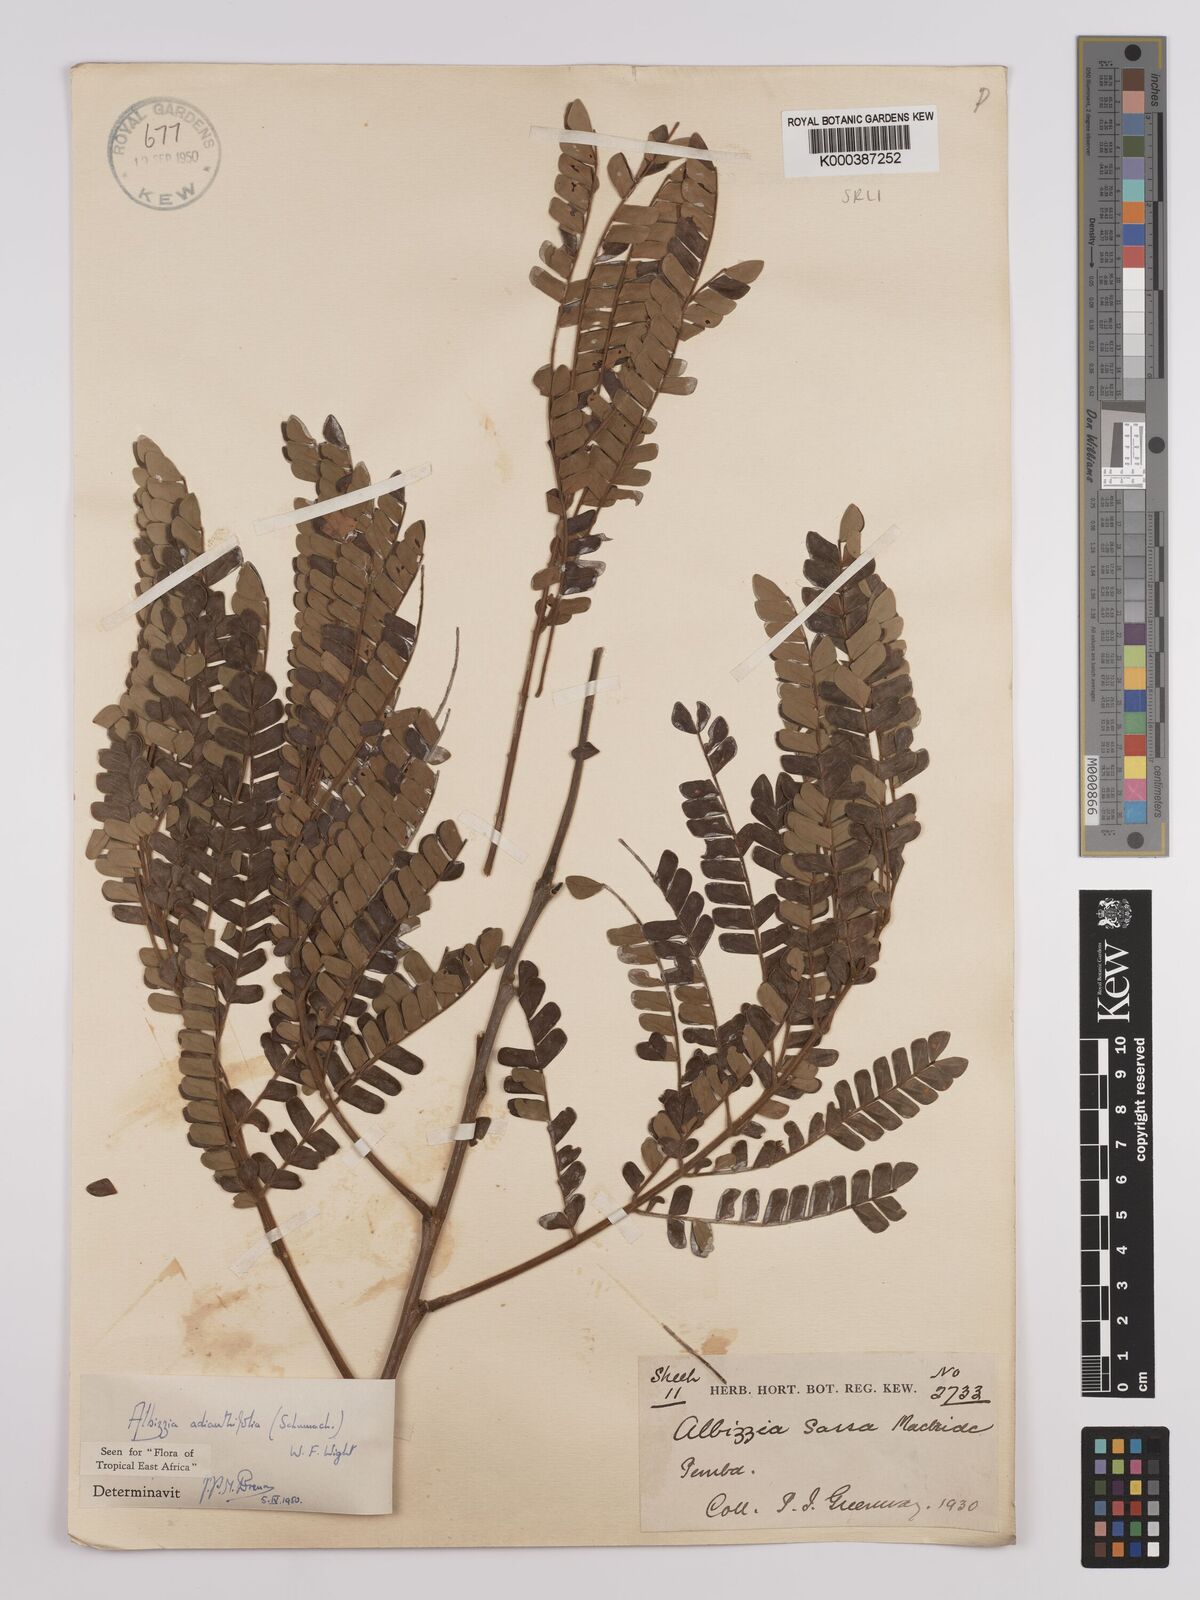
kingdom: Plantae
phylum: Tracheophyta
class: Magnoliopsida
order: Fabales
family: Fabaceae
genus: Albizia
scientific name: Albizia adianthifolia
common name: West african albizia
